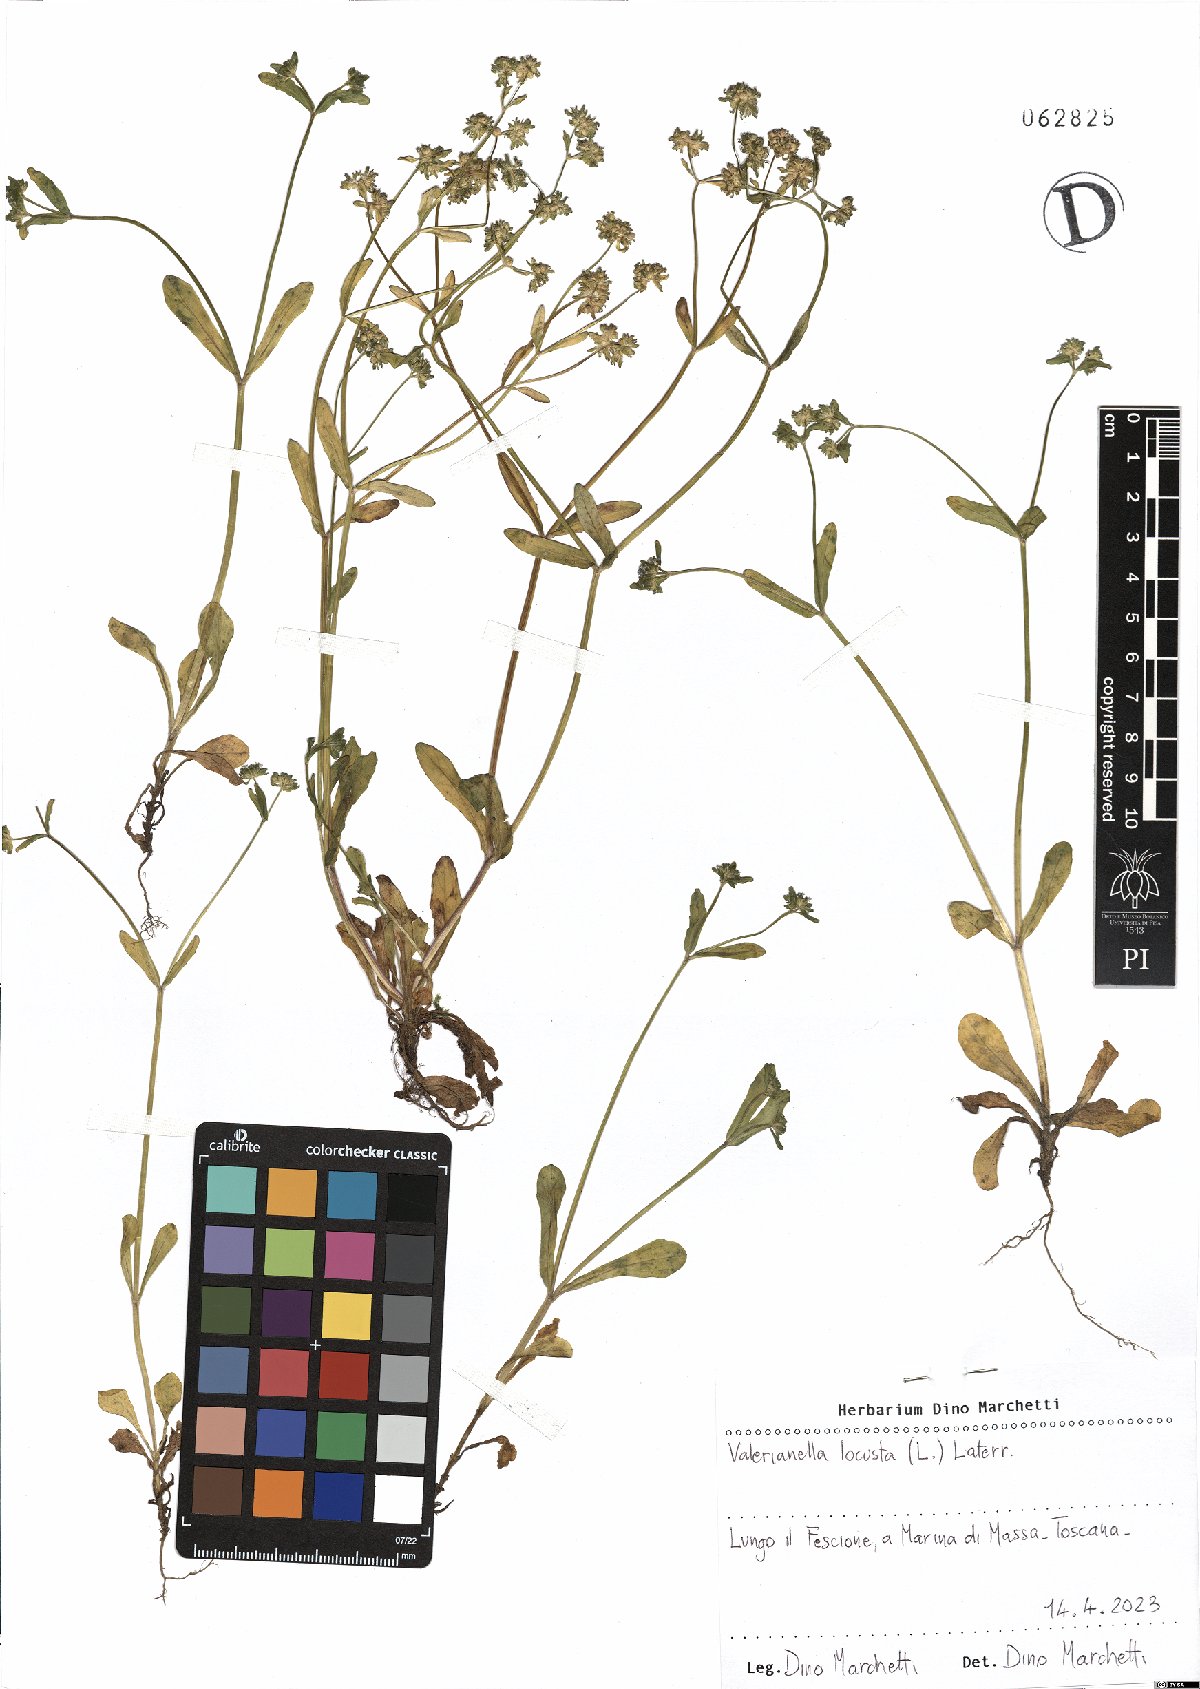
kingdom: Plantae
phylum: Tracheophyta
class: Magnoliopsida
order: Dipsacales
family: Caprifoliaceae
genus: Valerianella
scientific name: Valerianella locusta
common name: Common cornsalad
